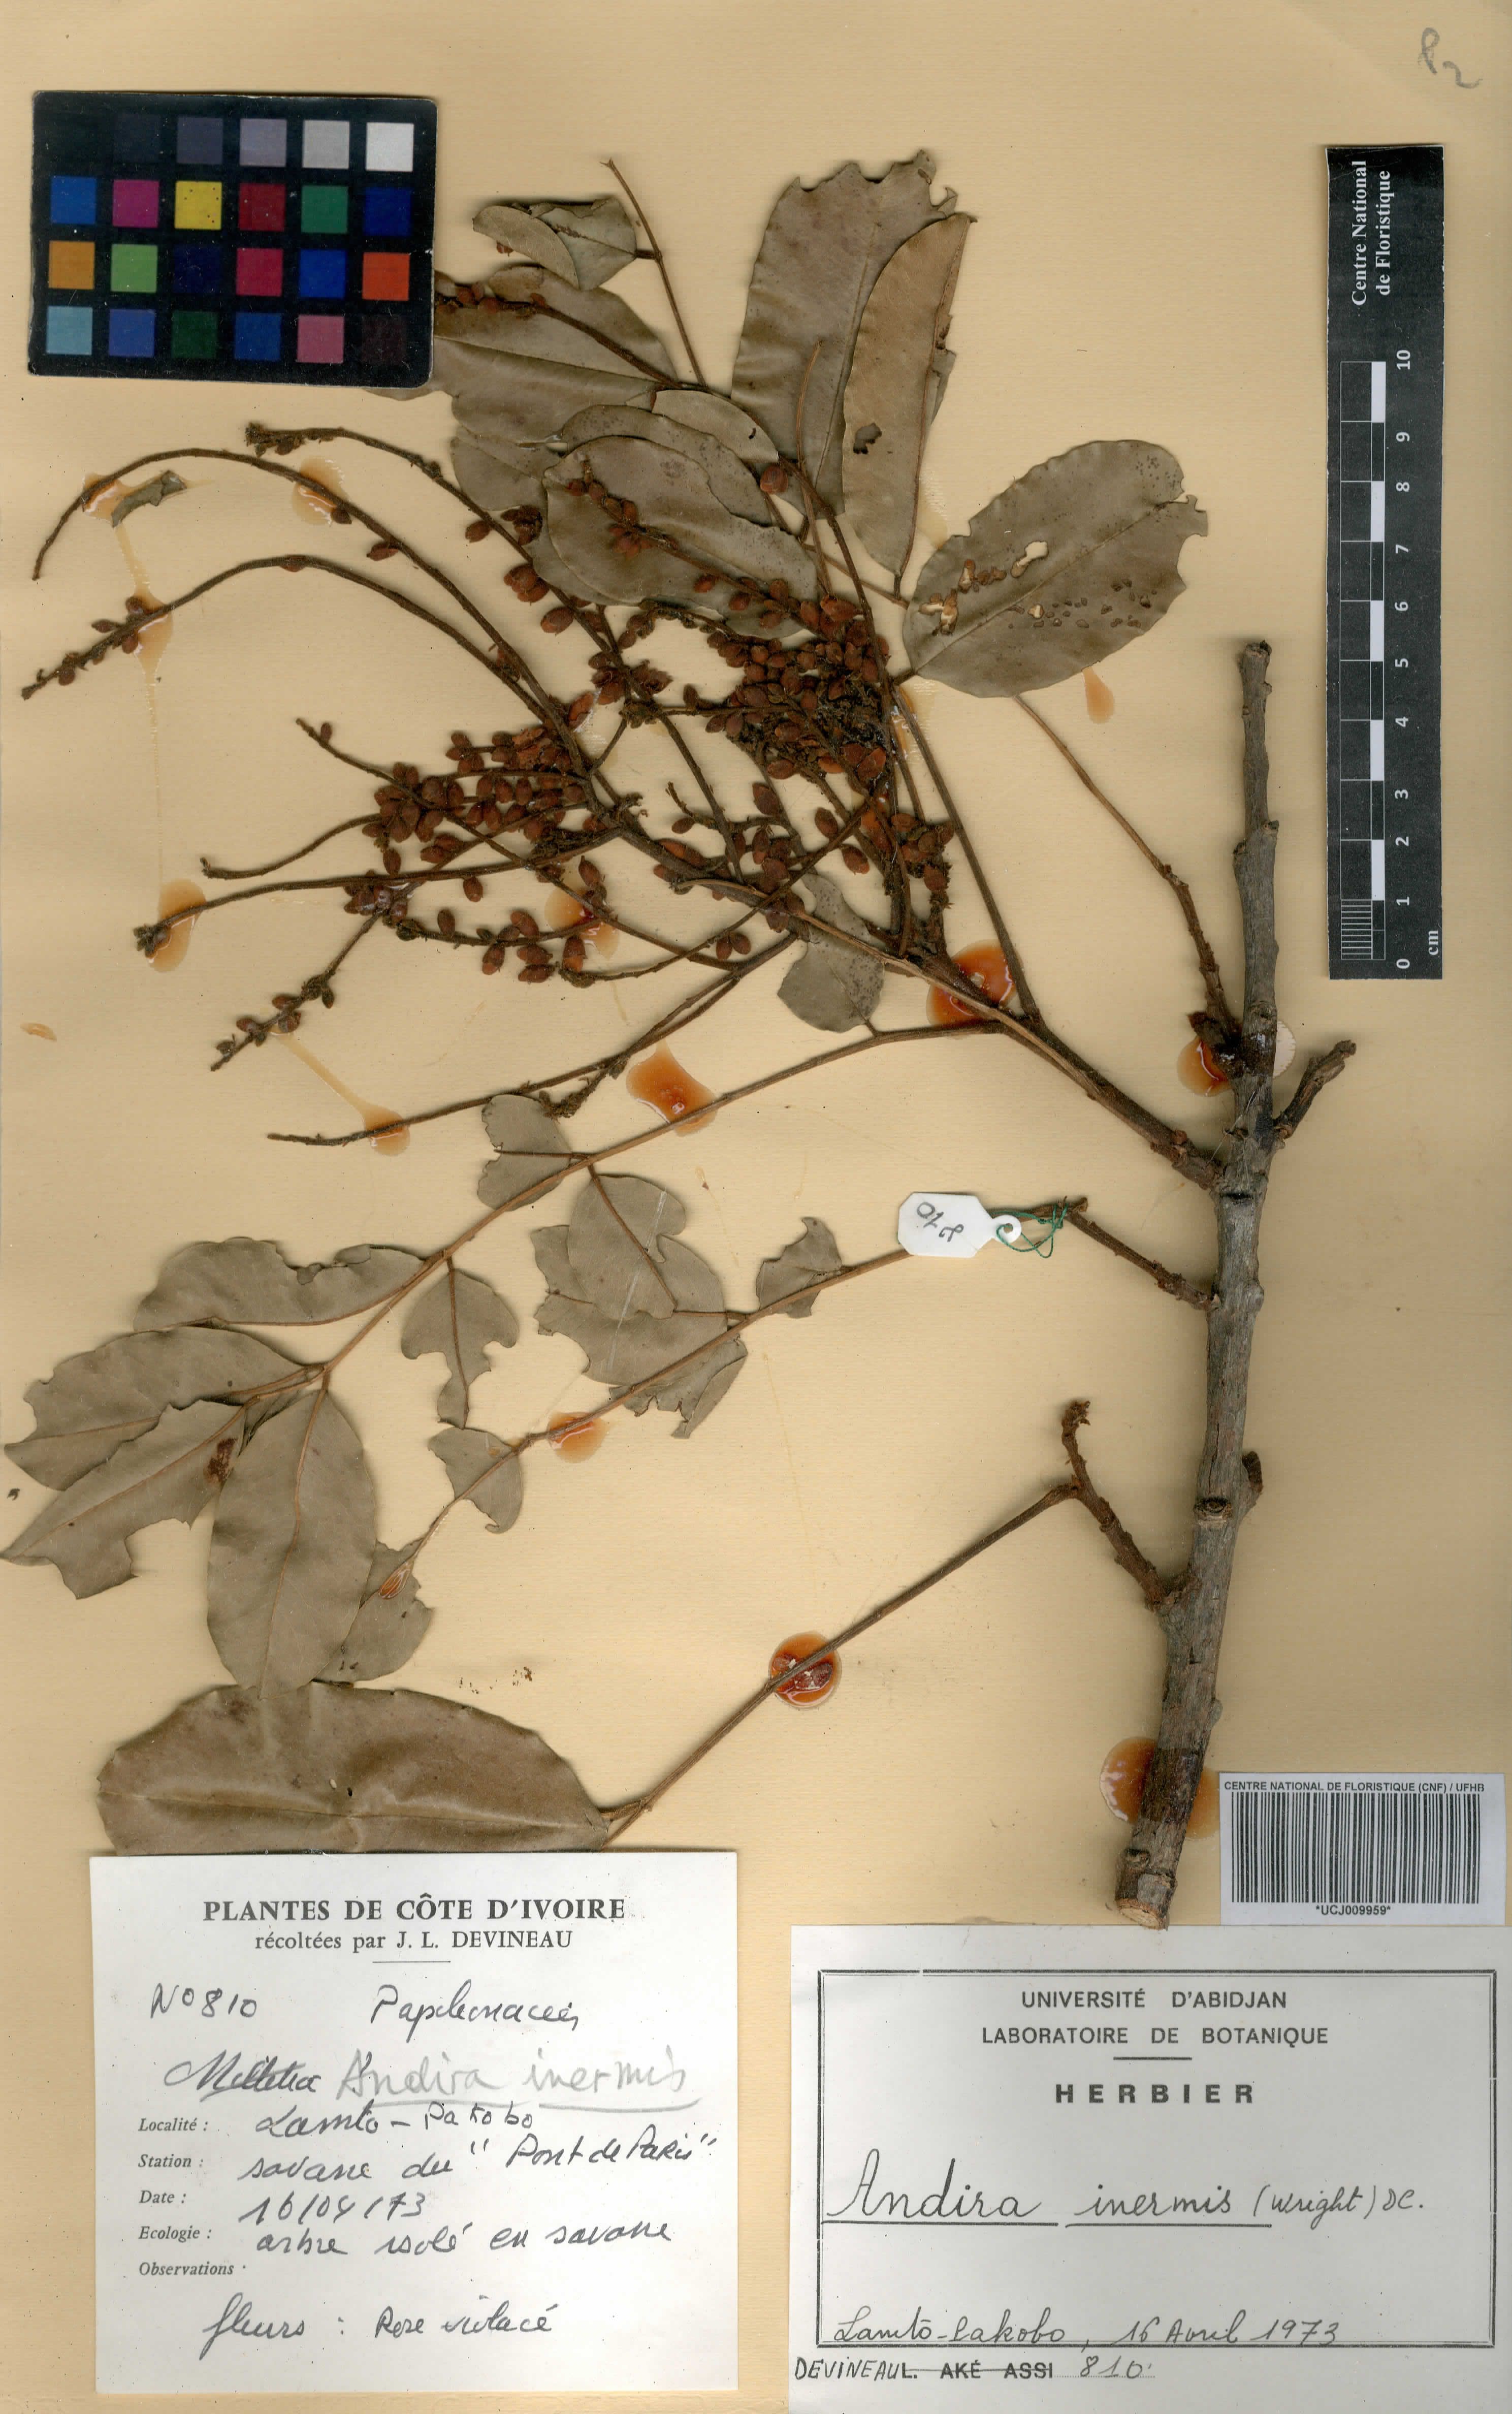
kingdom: Plantae
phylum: Tracheophyta
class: Magnoliopsida
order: Fabales
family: Fabaceae
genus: Andira
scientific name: Andira inermis
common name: Angelin
